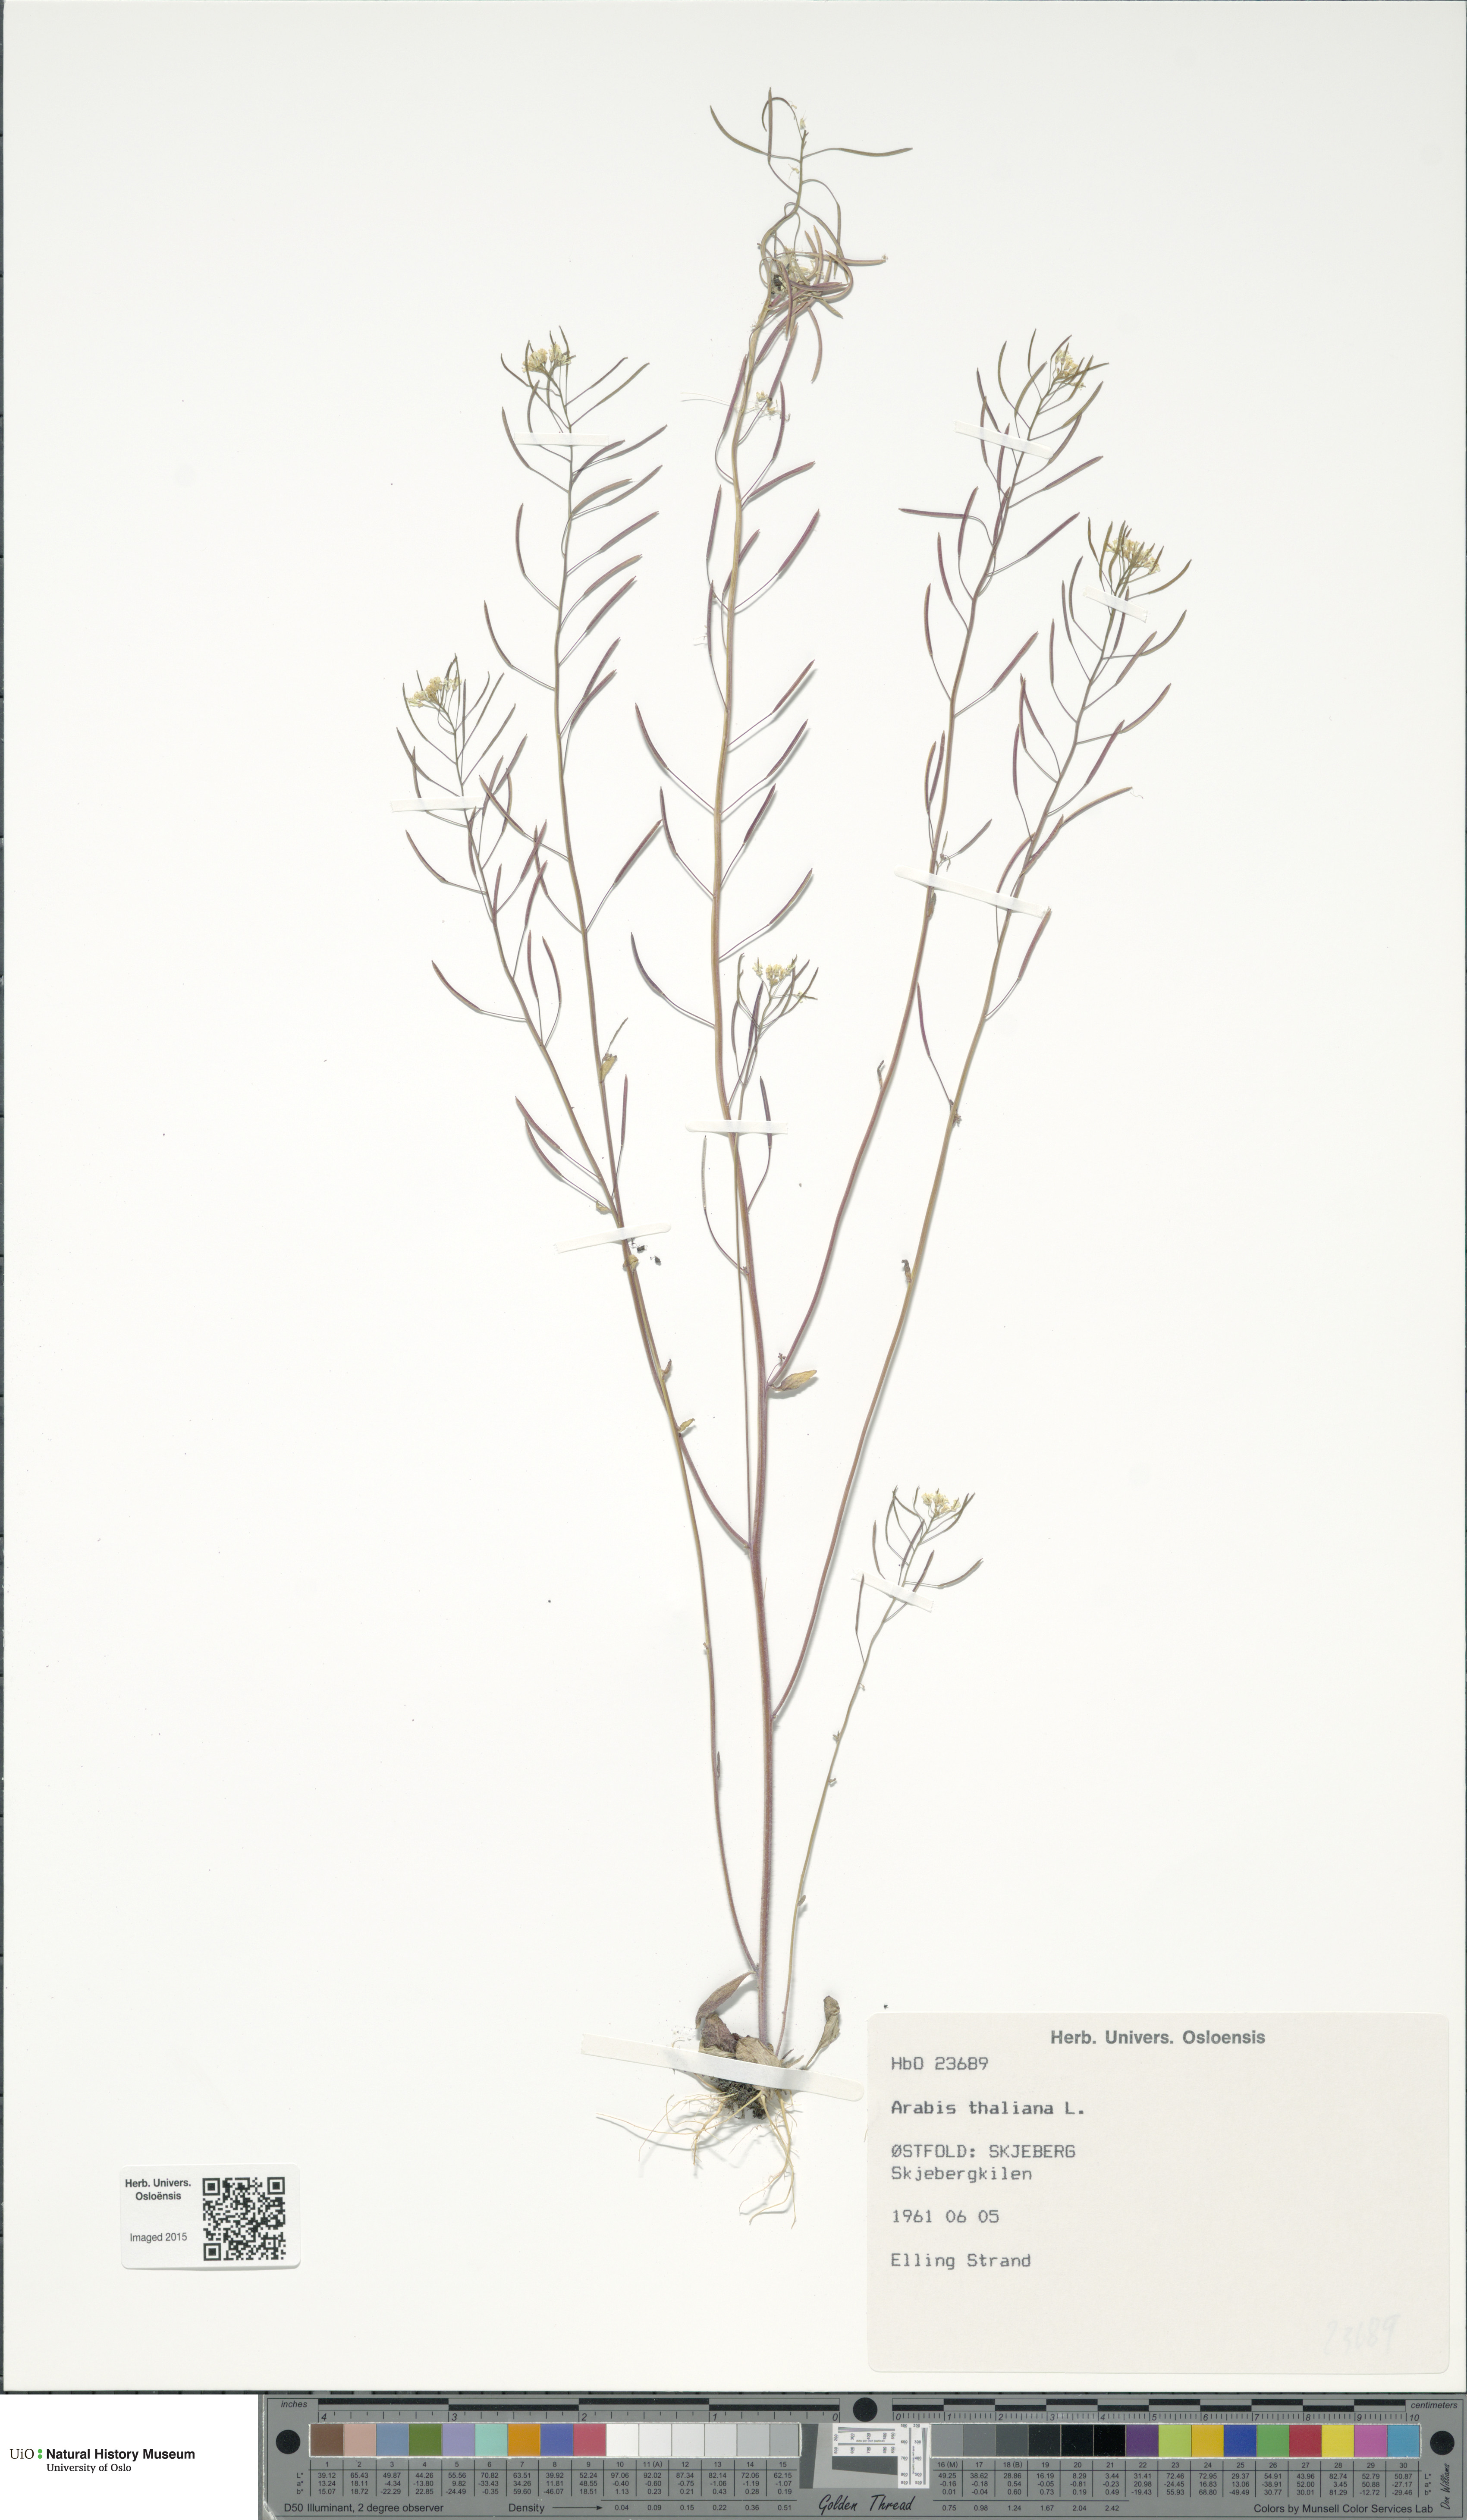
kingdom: Plantae
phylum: Tracheophyta
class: Magnoliopsida
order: Brassicales
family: Brassicaceae
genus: Arabidopsis
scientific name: Arabidopsis thaliana
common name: Thale cress
